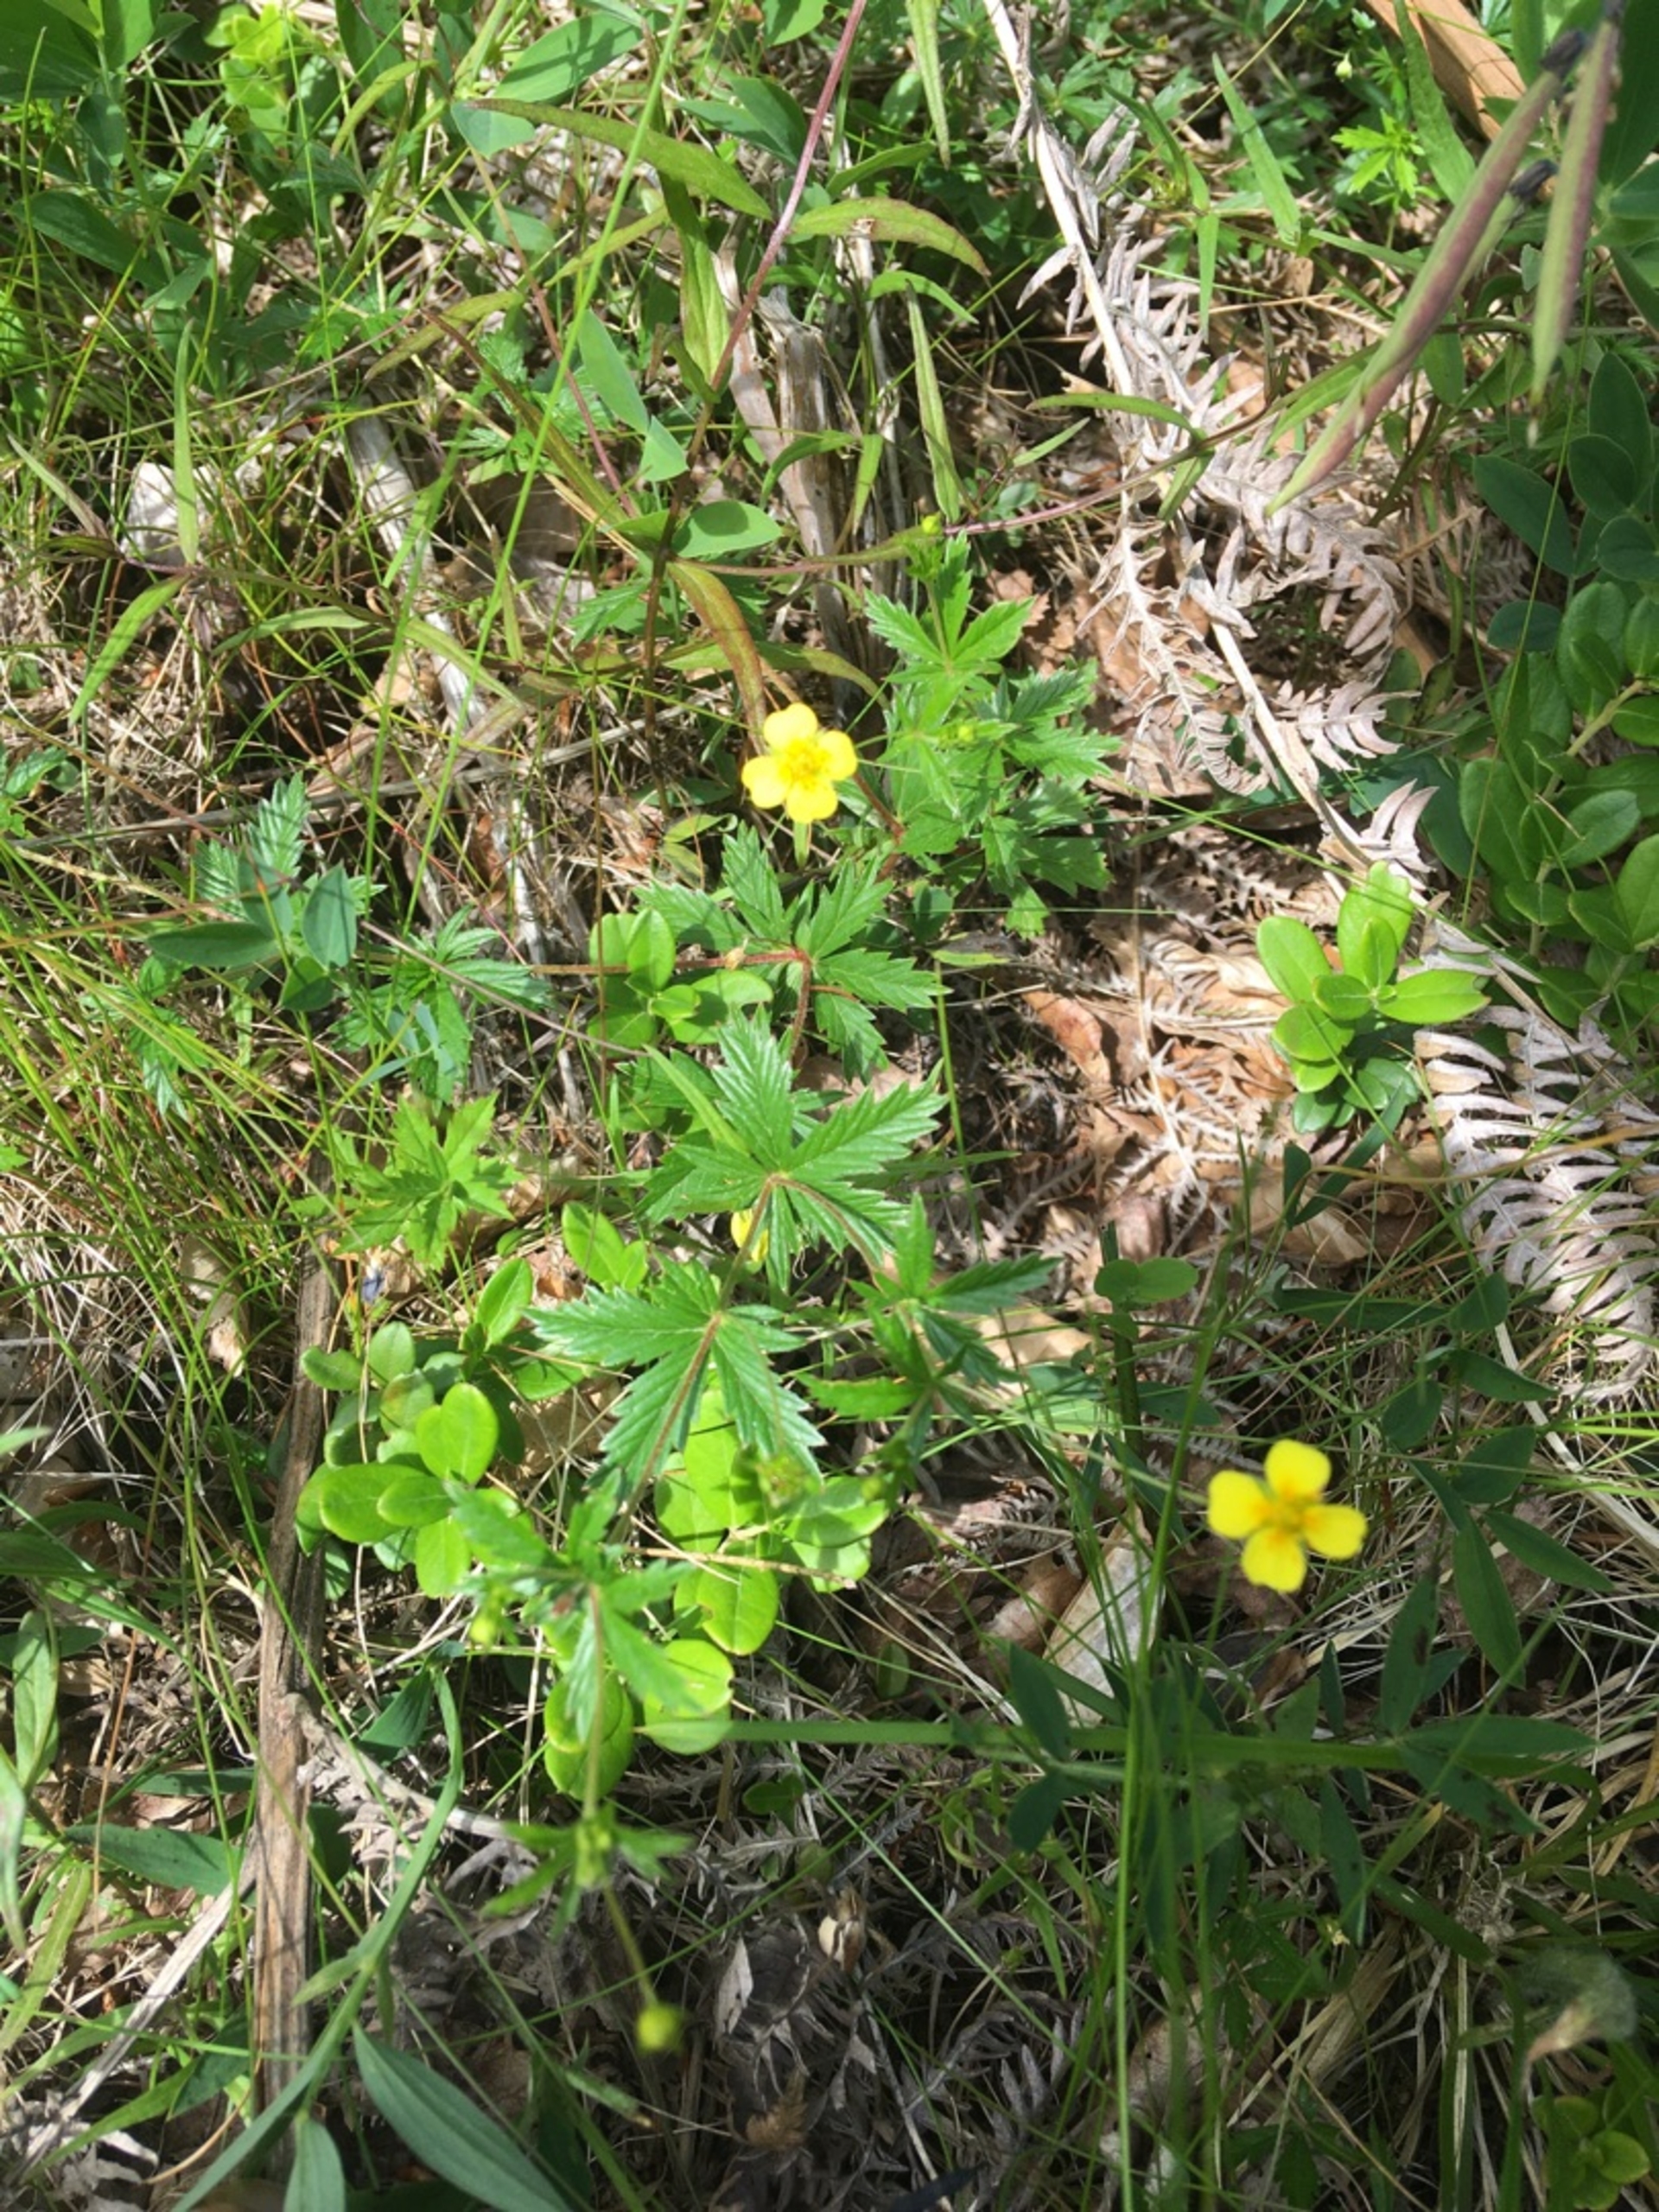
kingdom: Plantae
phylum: Tracheophyta
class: Magnoliopsida
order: Rosales
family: Rosaceae
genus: Potentilla
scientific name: Potentilla erecta
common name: Tormentil
